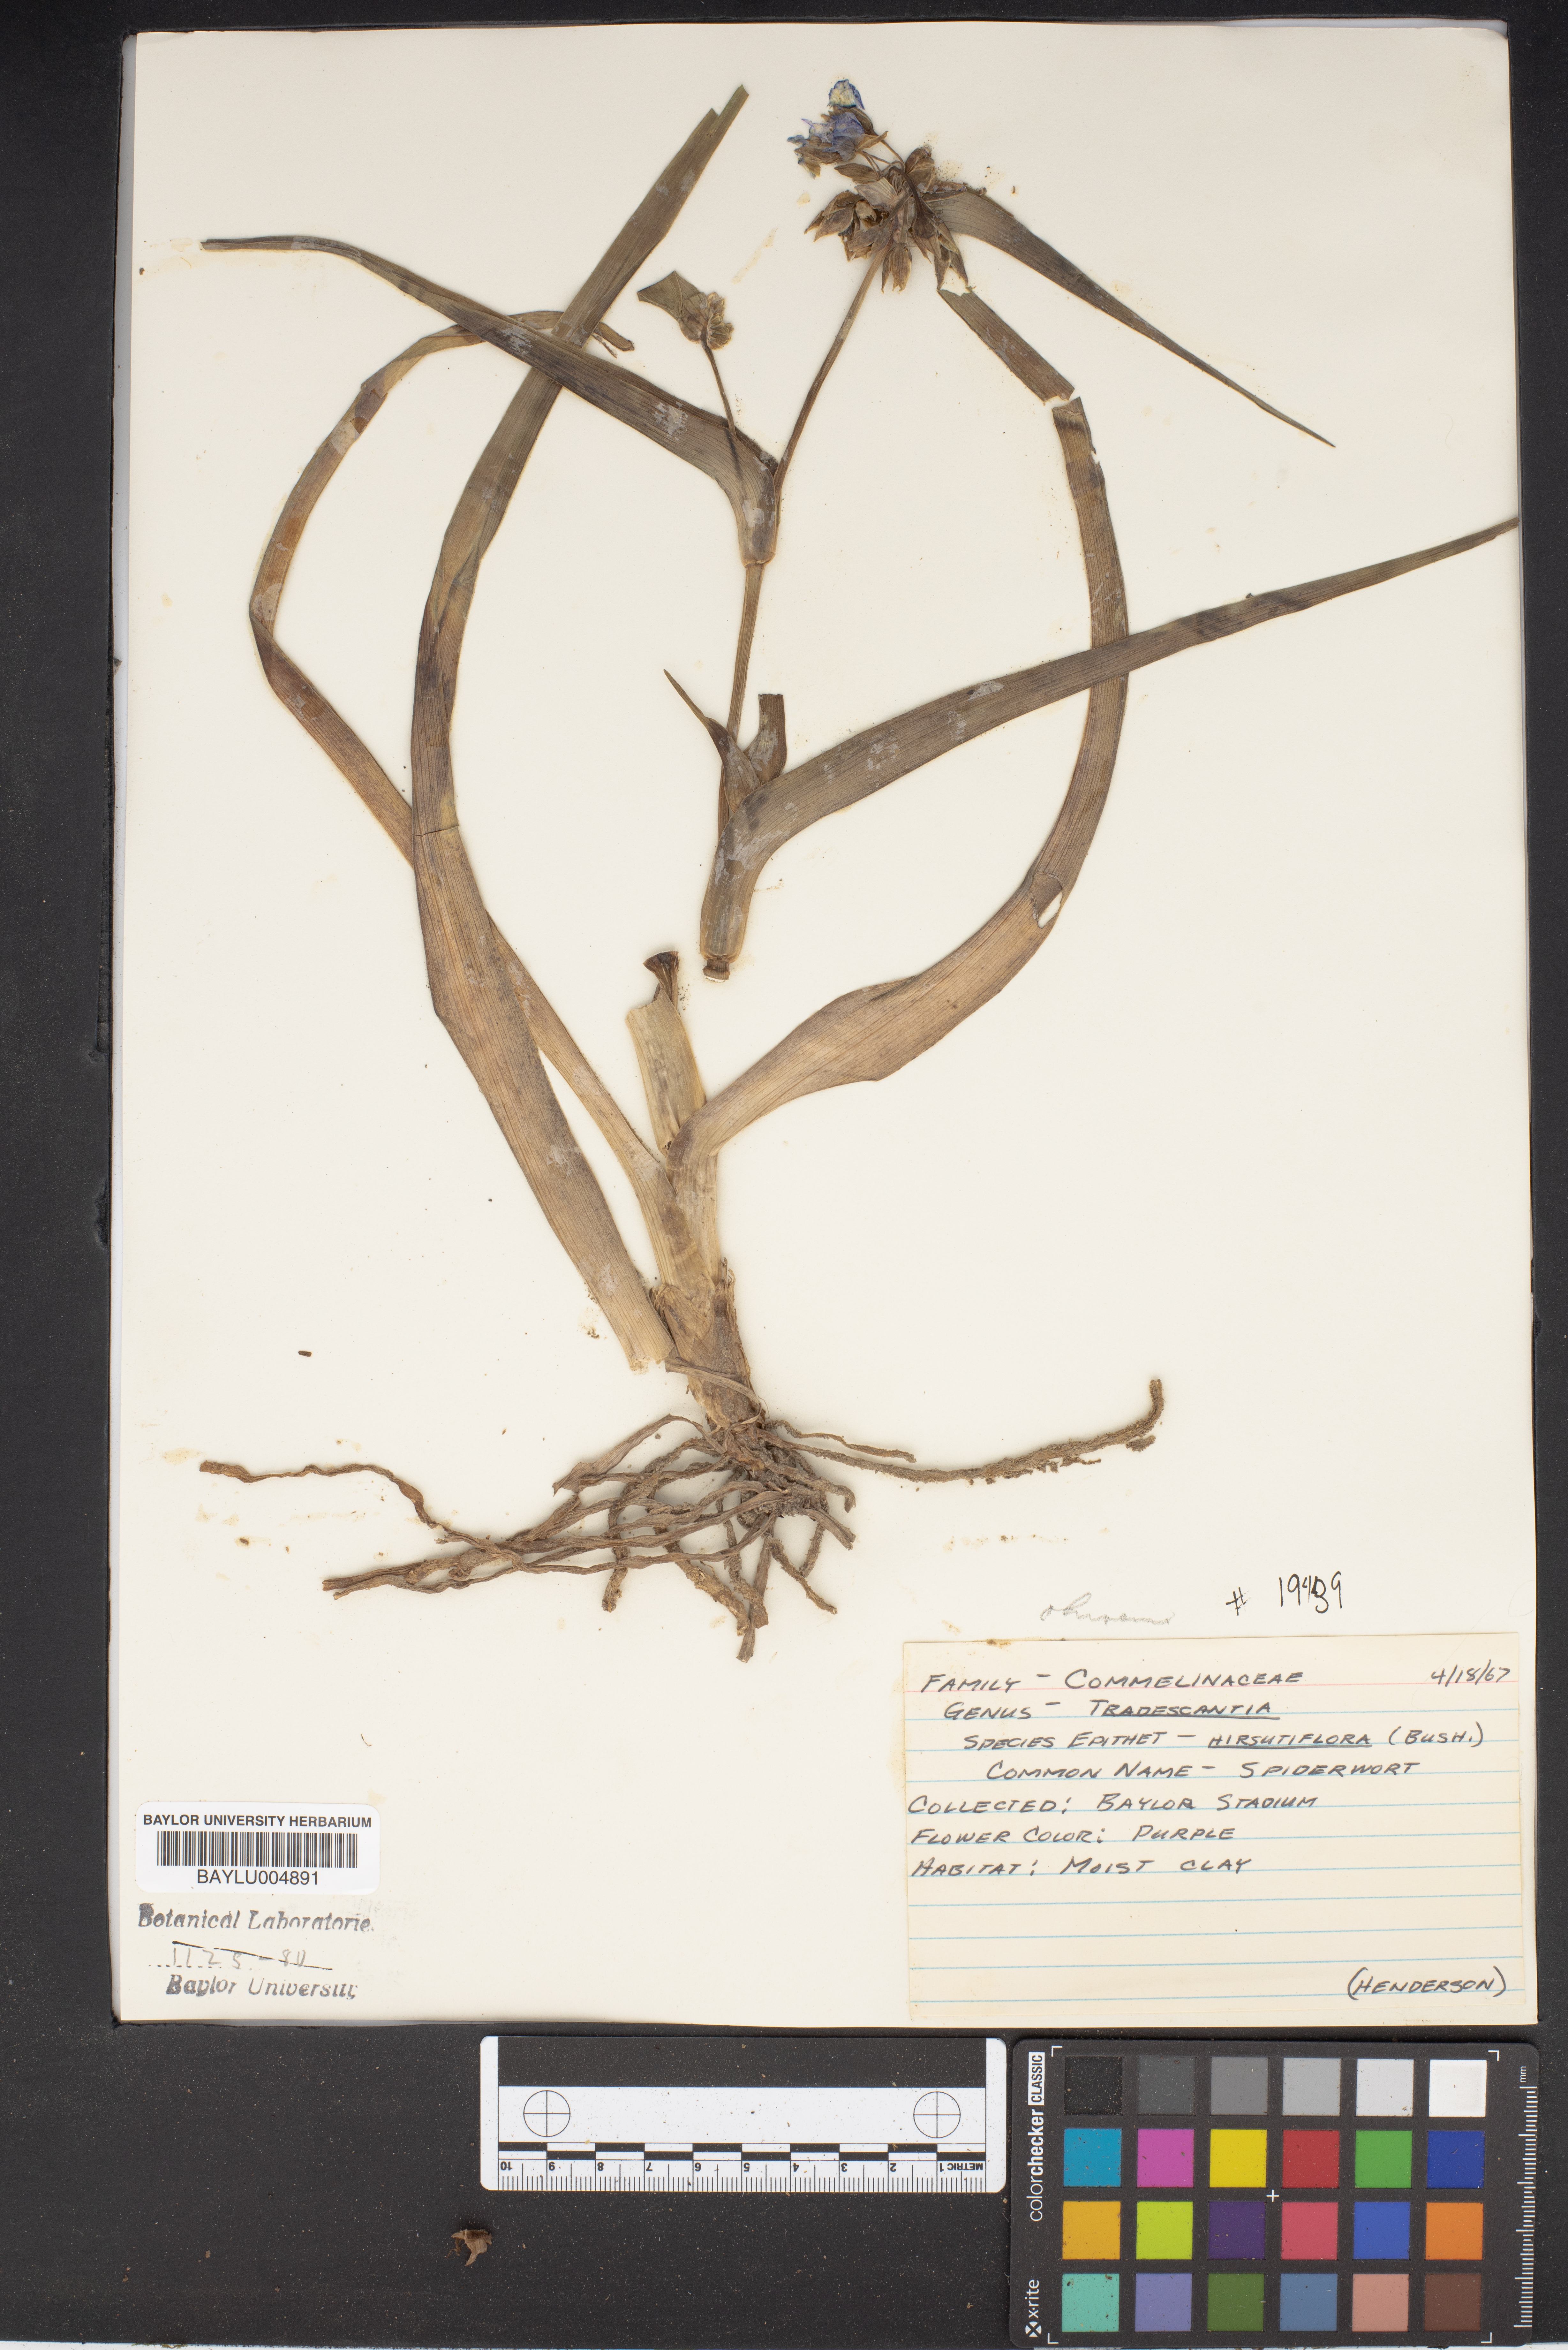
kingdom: Plantae
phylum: Tracheophyta
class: Liliopsida
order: Commelinales
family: Commelinaceae
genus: Tradescantia
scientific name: Tradescantia hirsutiflora
